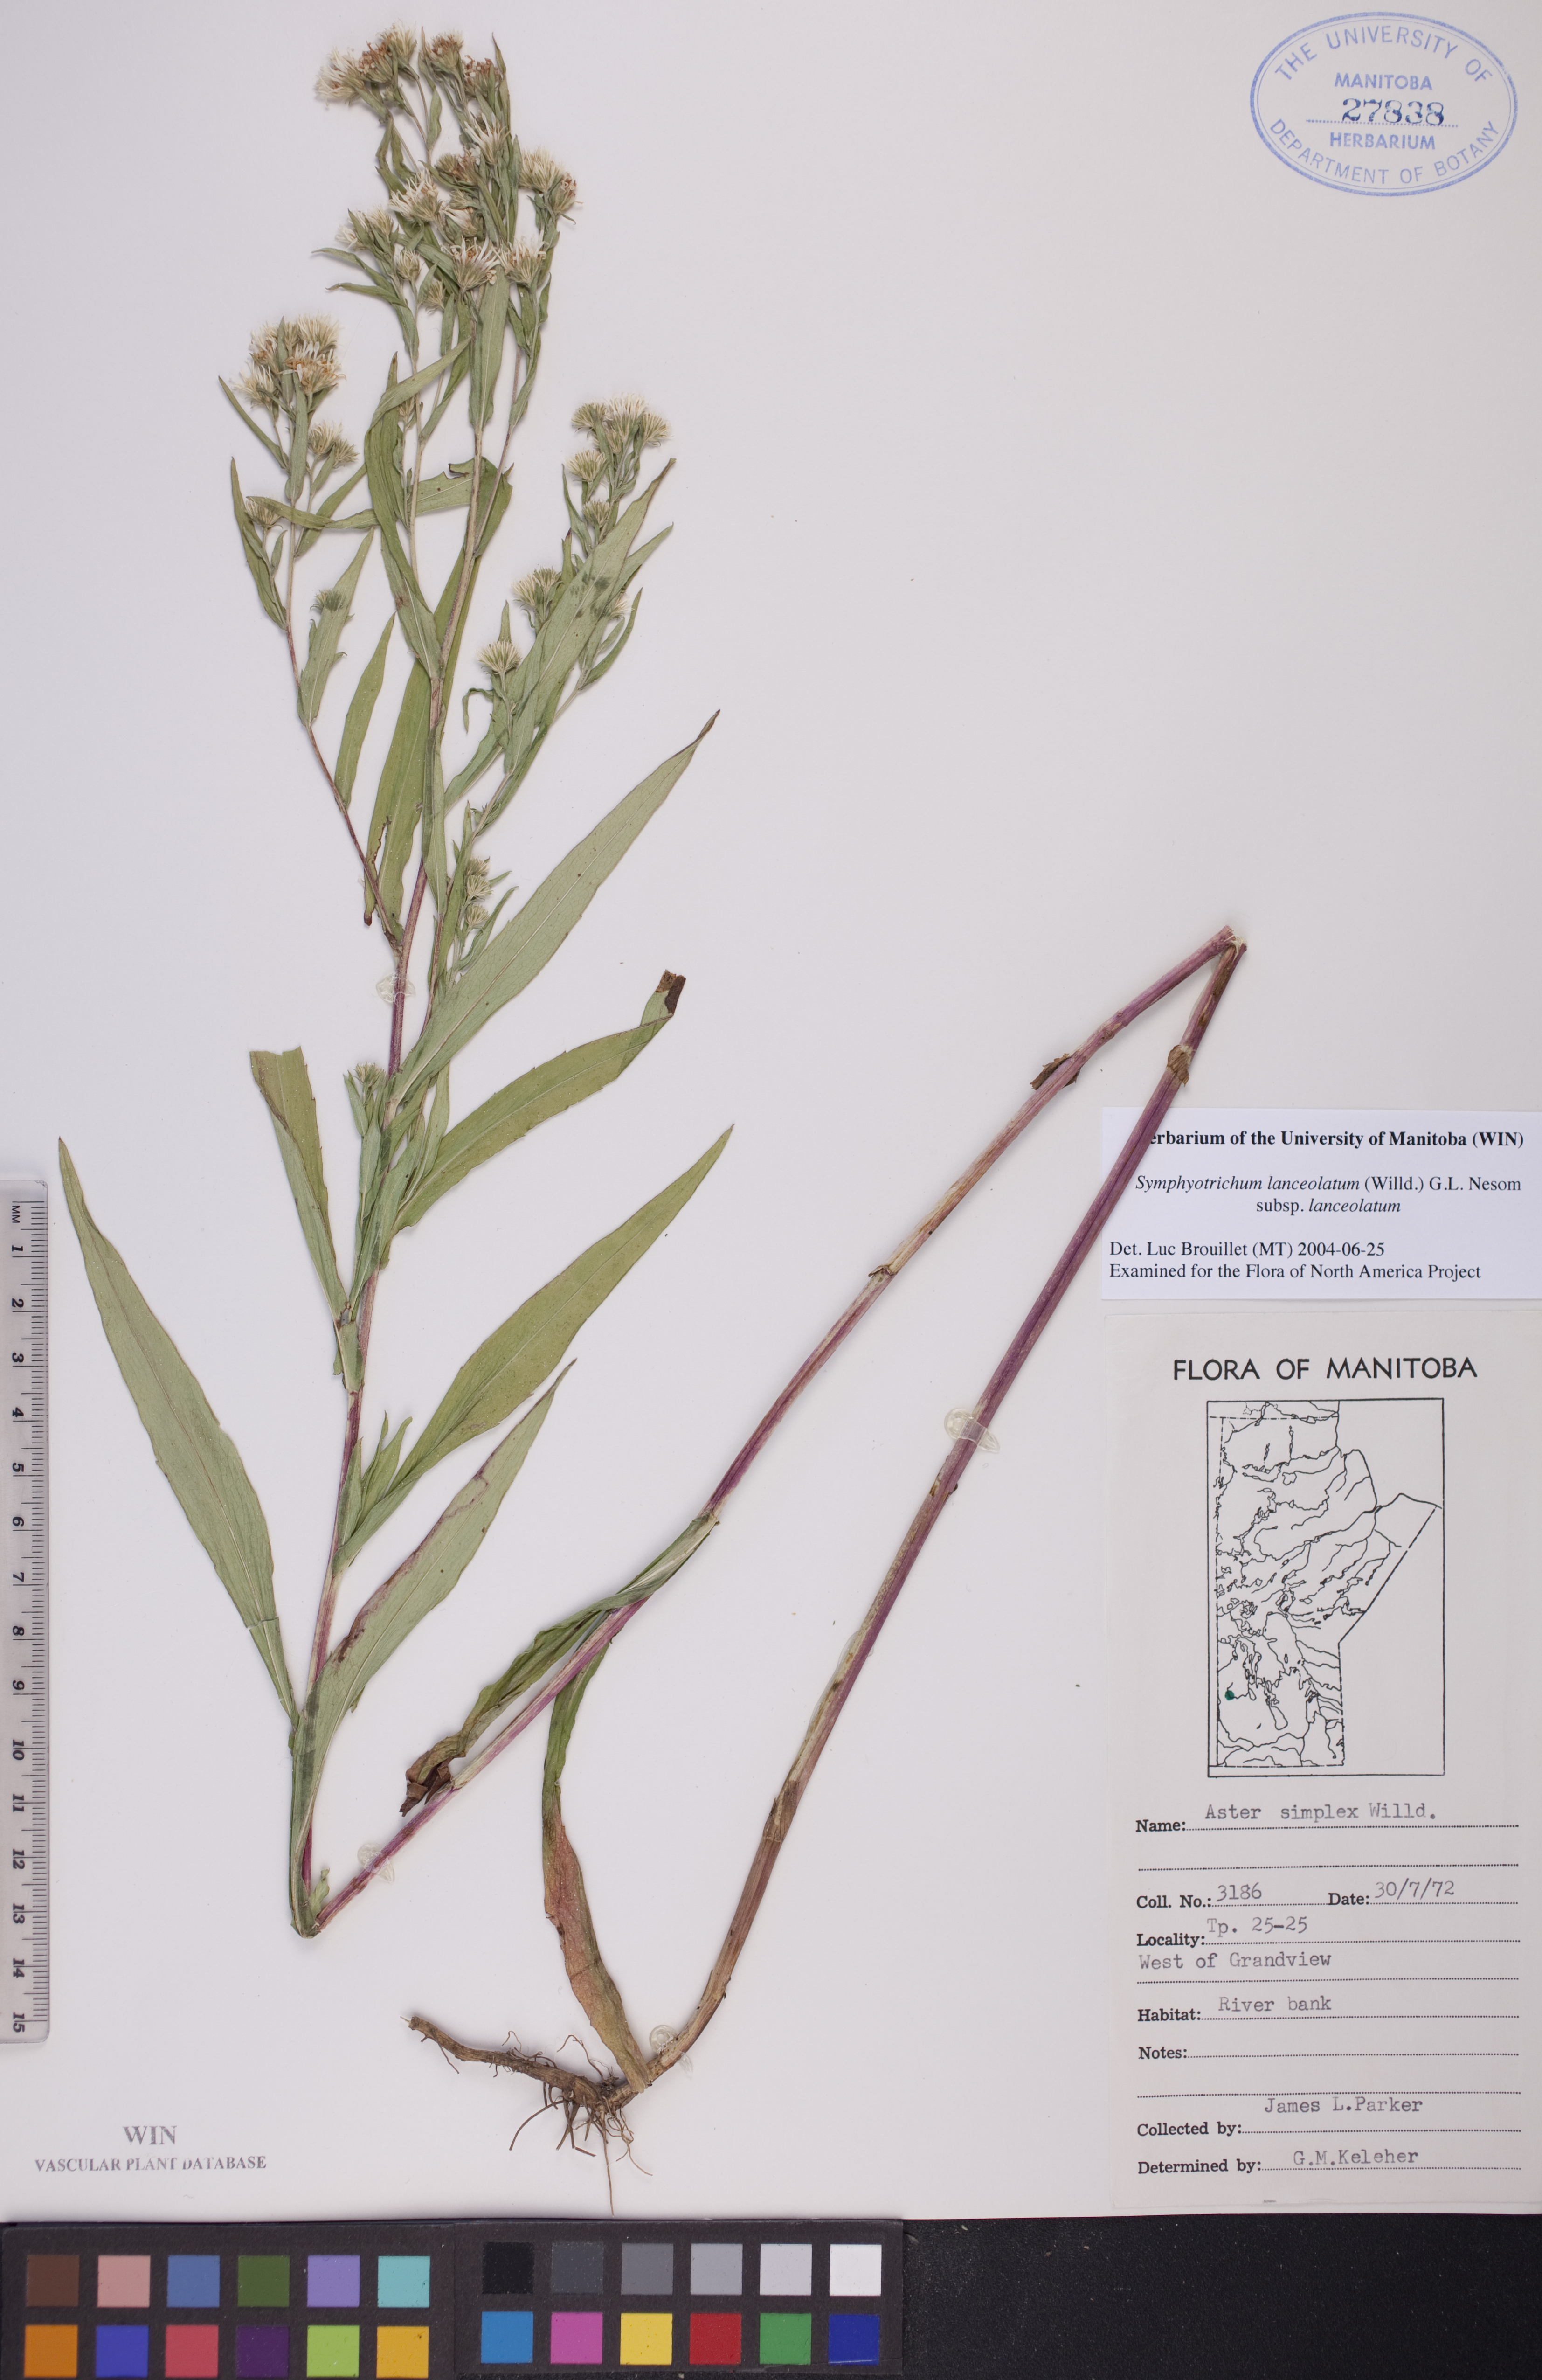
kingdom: Plantae
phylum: Tracheophyta
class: Magnoliopsida
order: Asterales
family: Asteraceae
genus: Symphyotrichum
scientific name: Symphyotrichum lanceolatum
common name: Panicled aster
